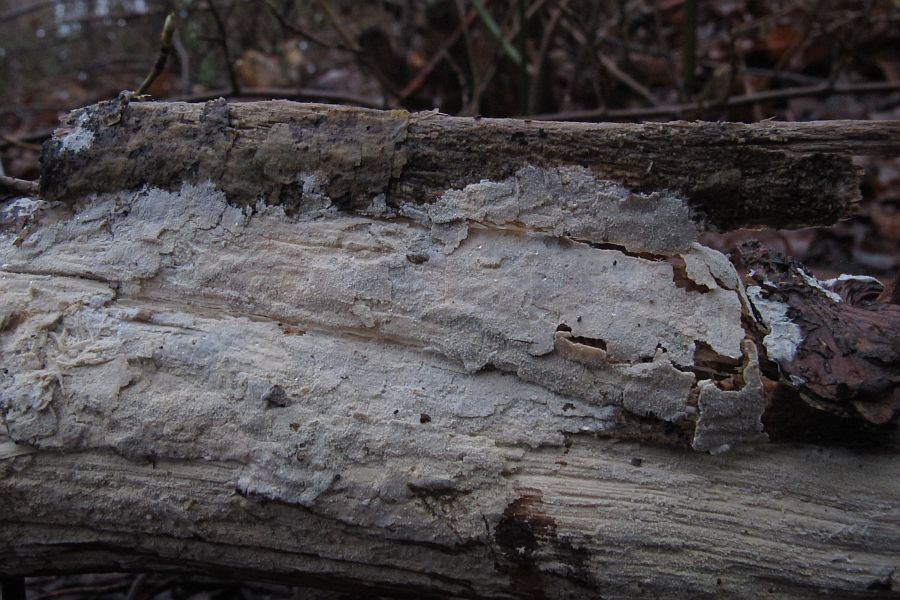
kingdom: Fungi
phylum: Basidiomycota
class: Agaricomycetes
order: Trechisporales
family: Hydnodontaceae
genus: Brevicellicium
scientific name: Brevicellicium olivascens
